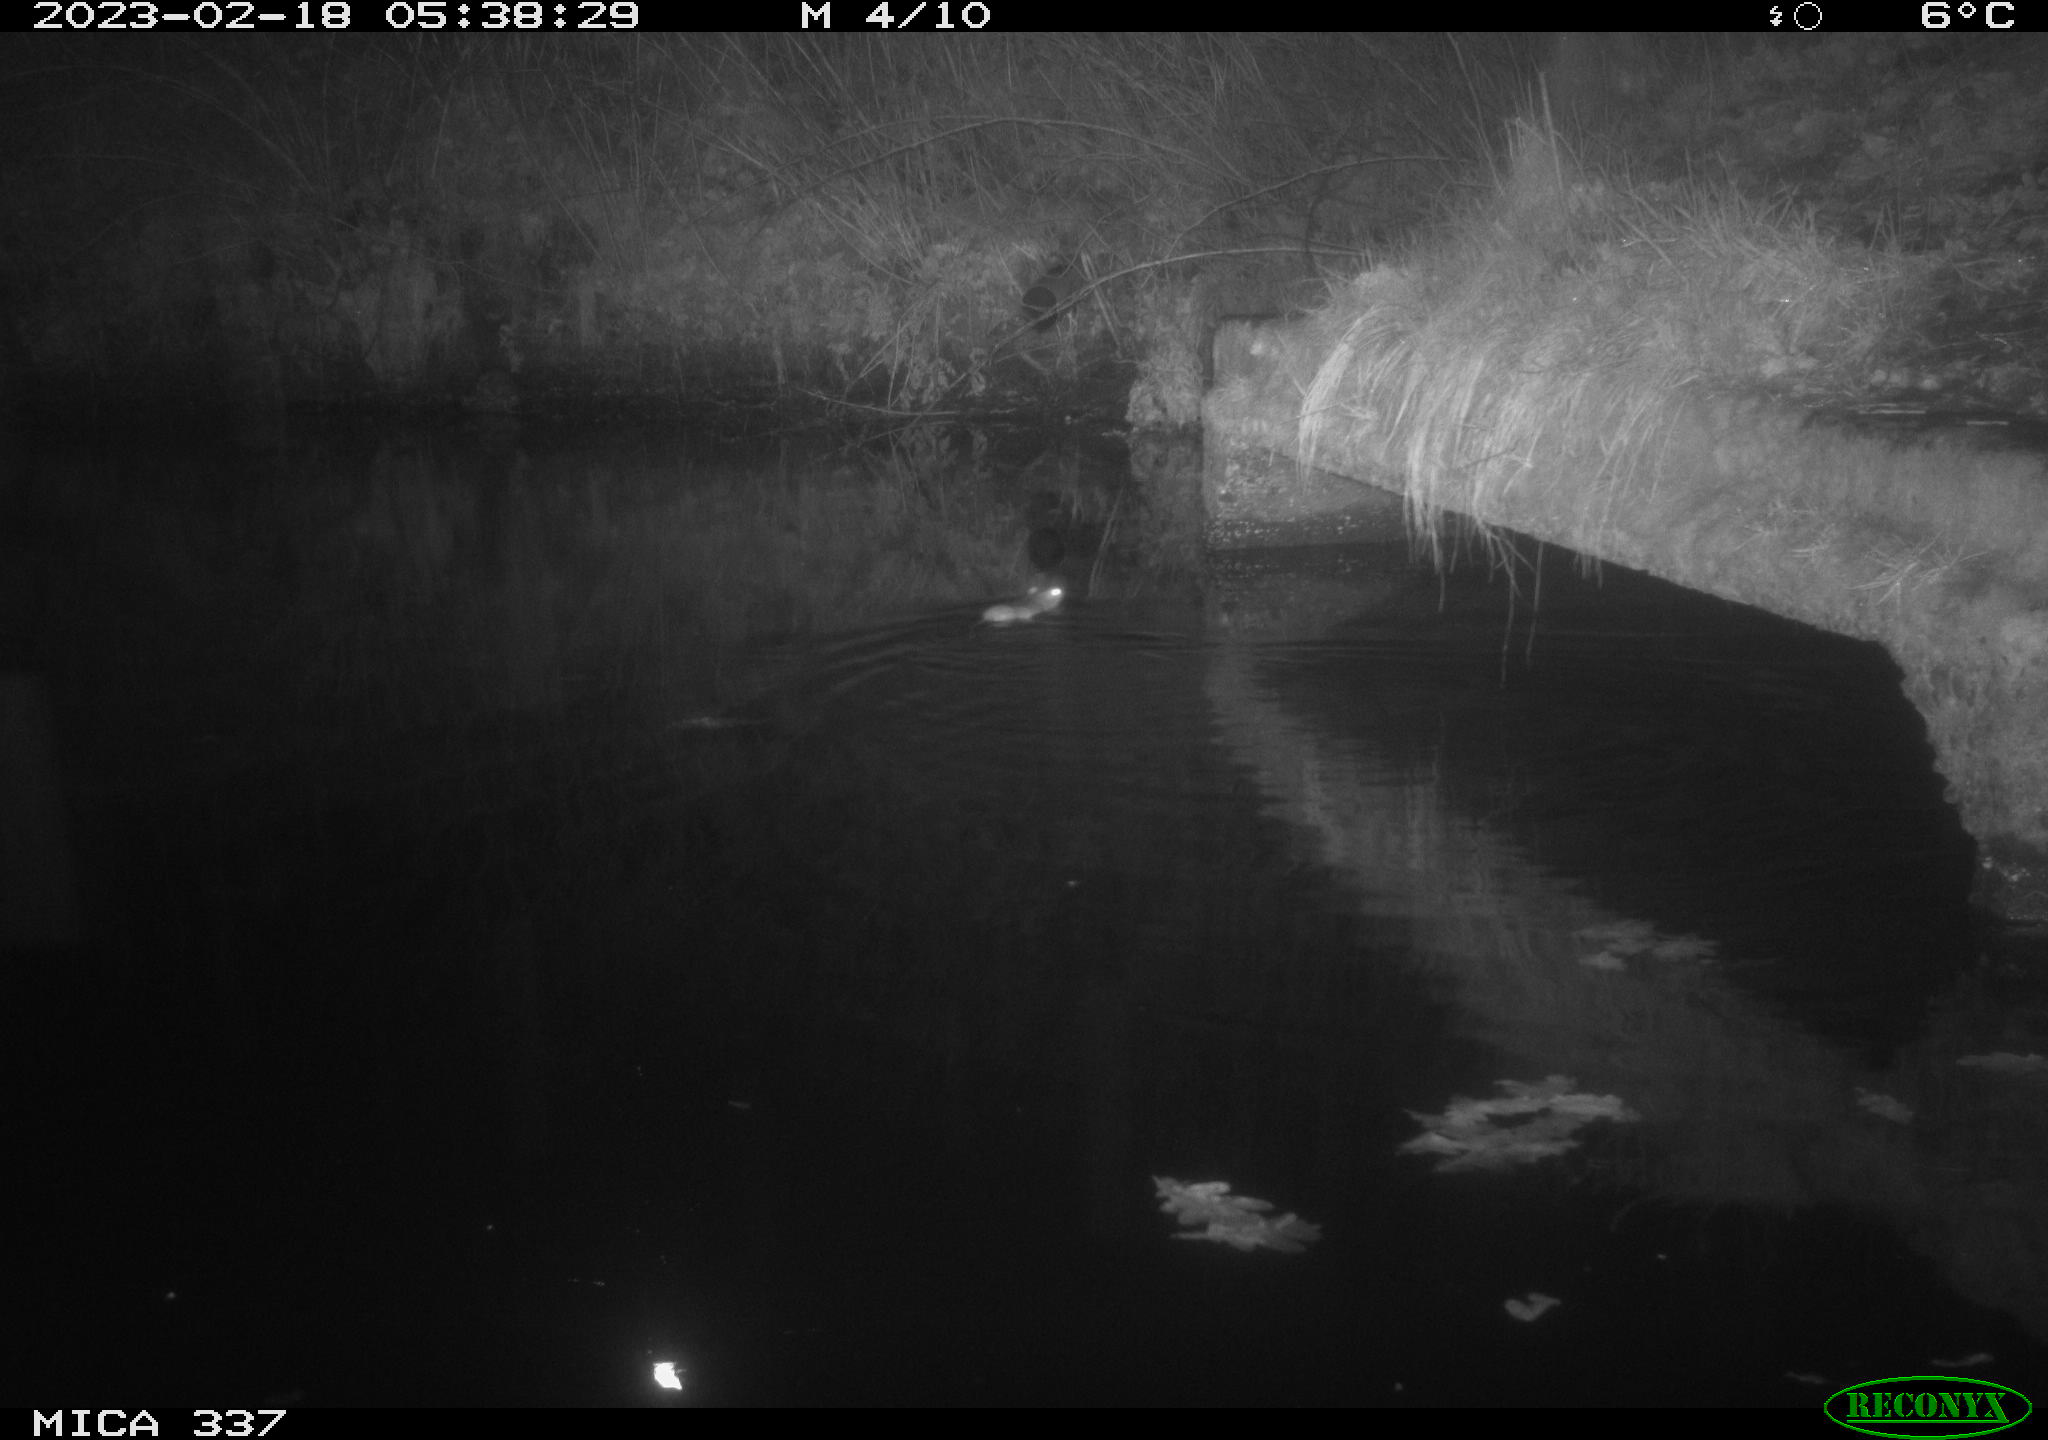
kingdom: Animalia
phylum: Chordata
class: Mammalia
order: Rodentia
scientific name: Rodentia
